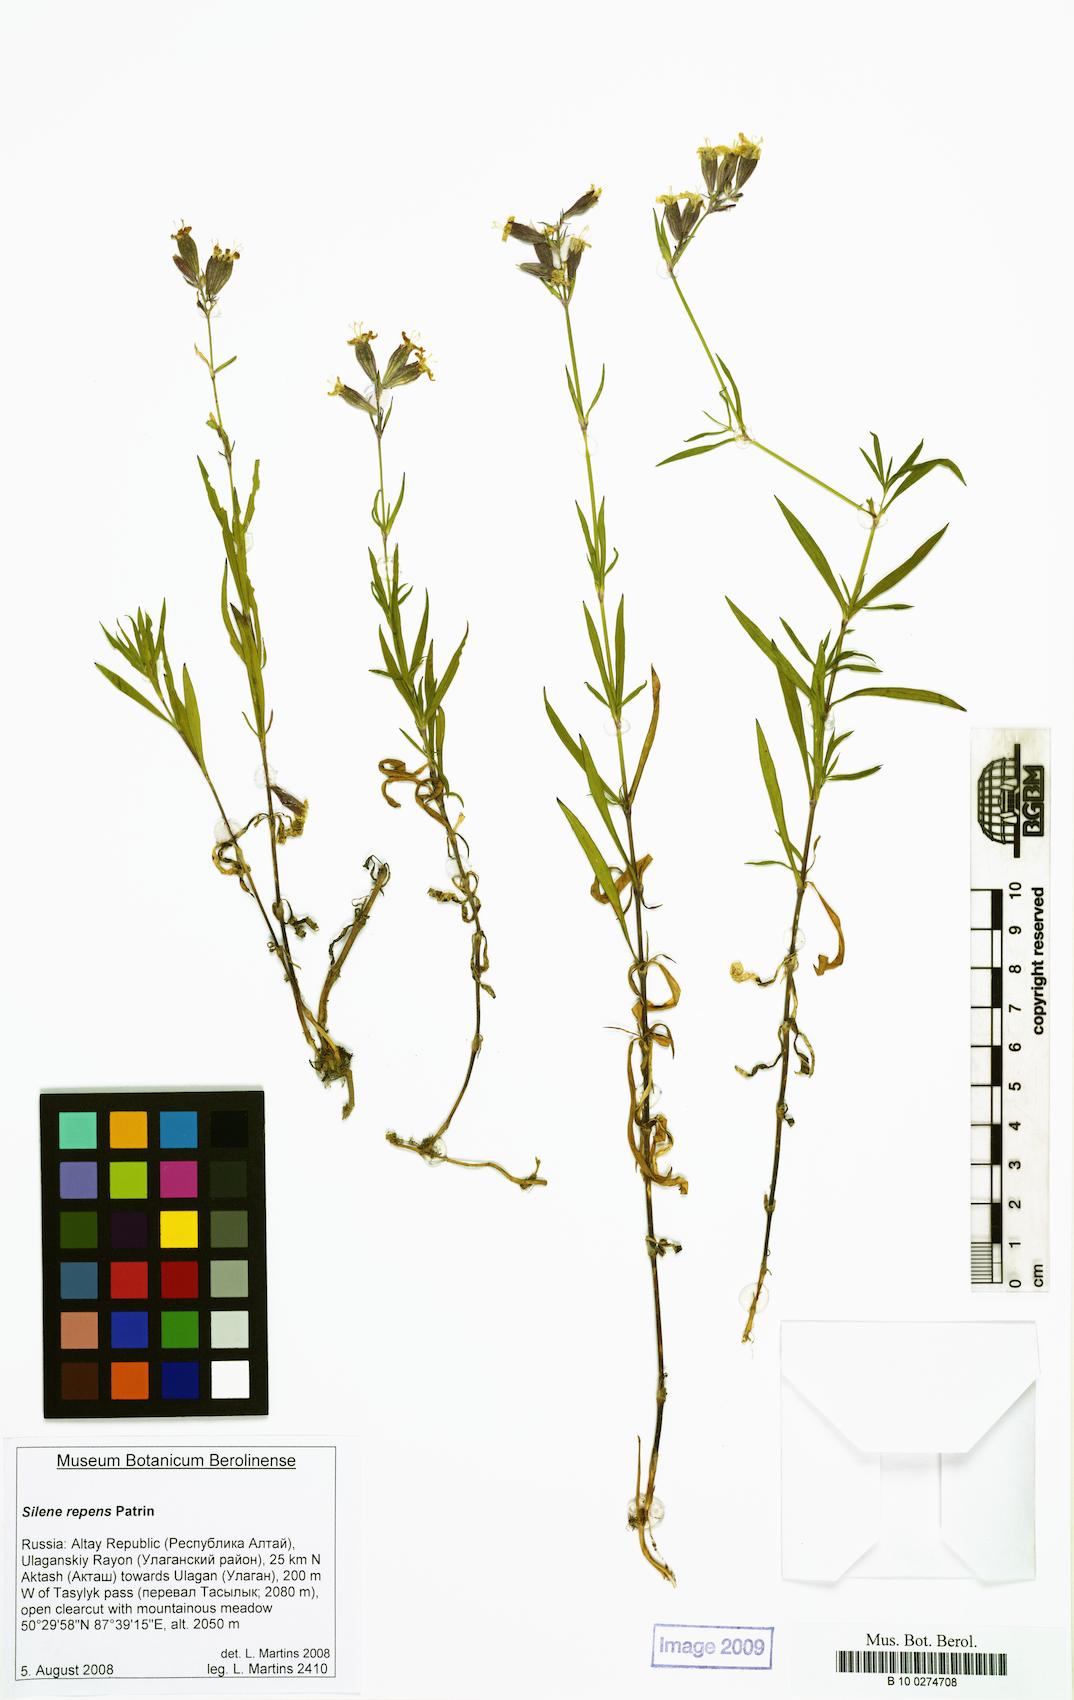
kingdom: Plantae
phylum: Tracheophyta
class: Magnoliopsida
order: Caryophyllales
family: Caryophyllaceae
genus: Silene
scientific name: Silene repens
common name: Pink campion
